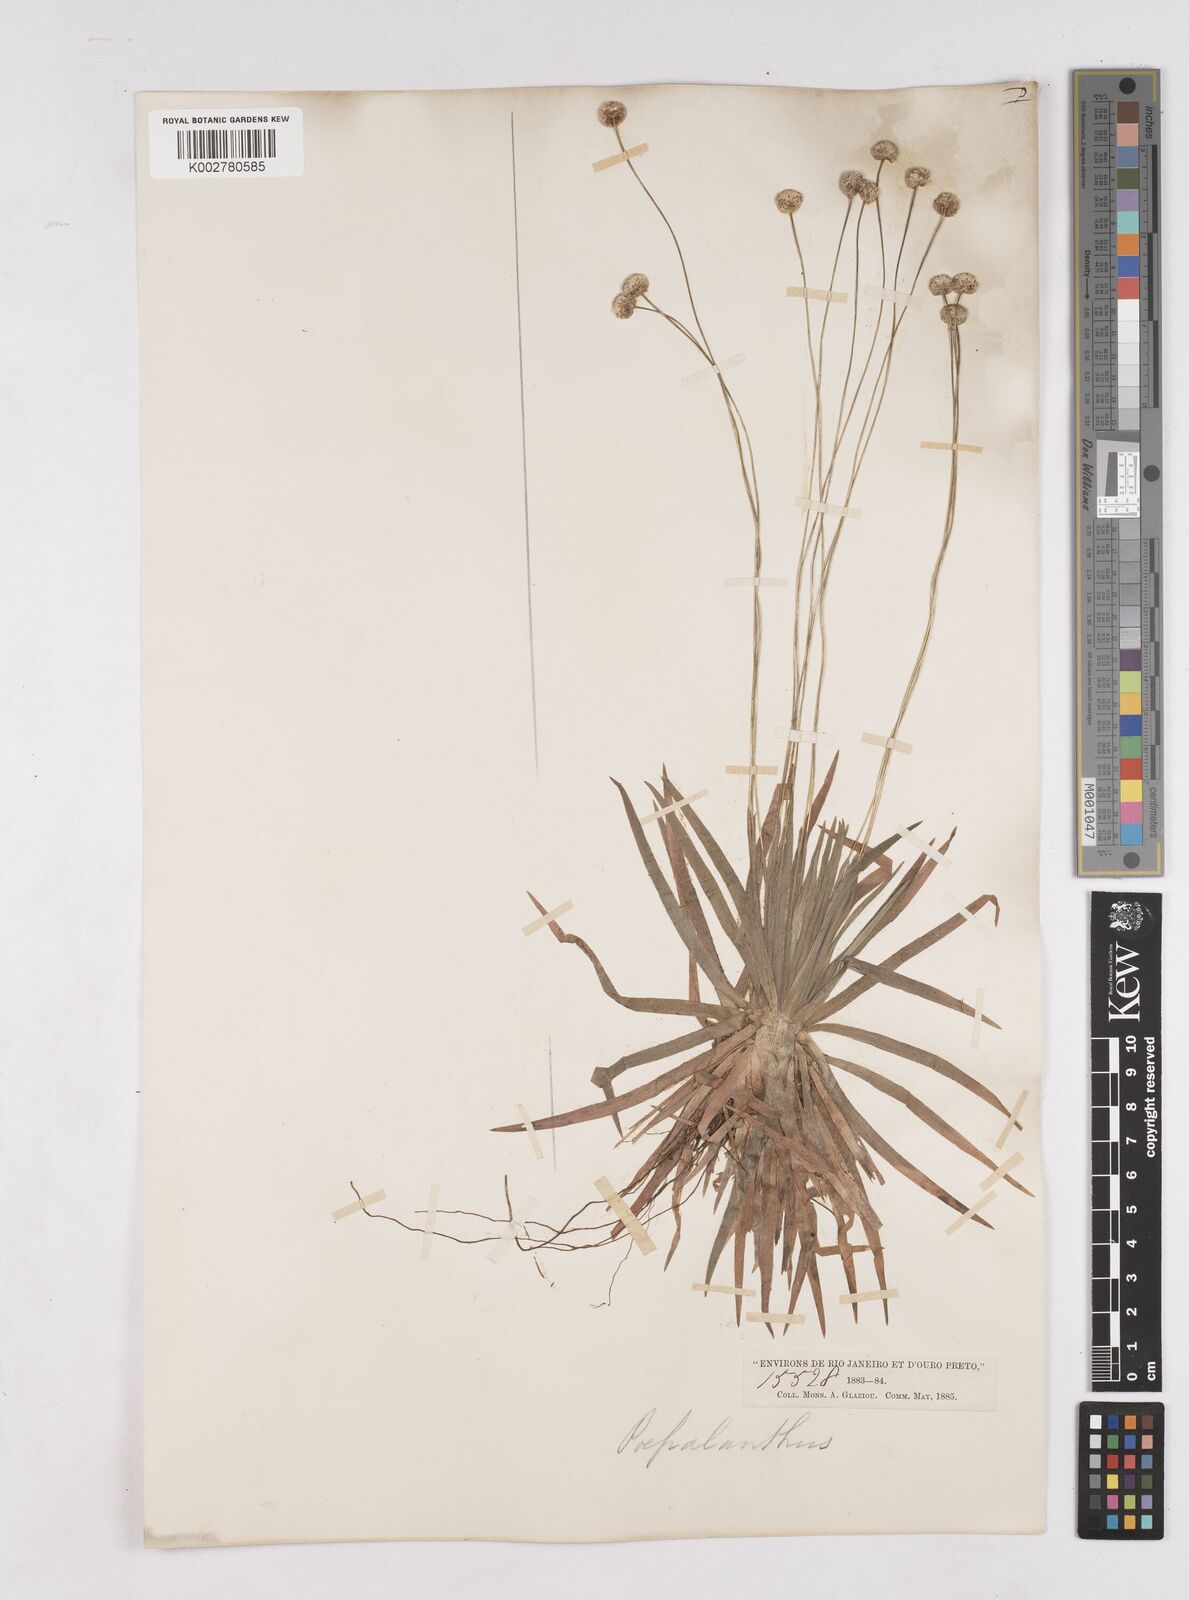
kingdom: Plantae
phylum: Tracheophyta
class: Liliopsida
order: Poales
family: Eriocaulaceae
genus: Paepalanthus
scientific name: Paepalanthus
